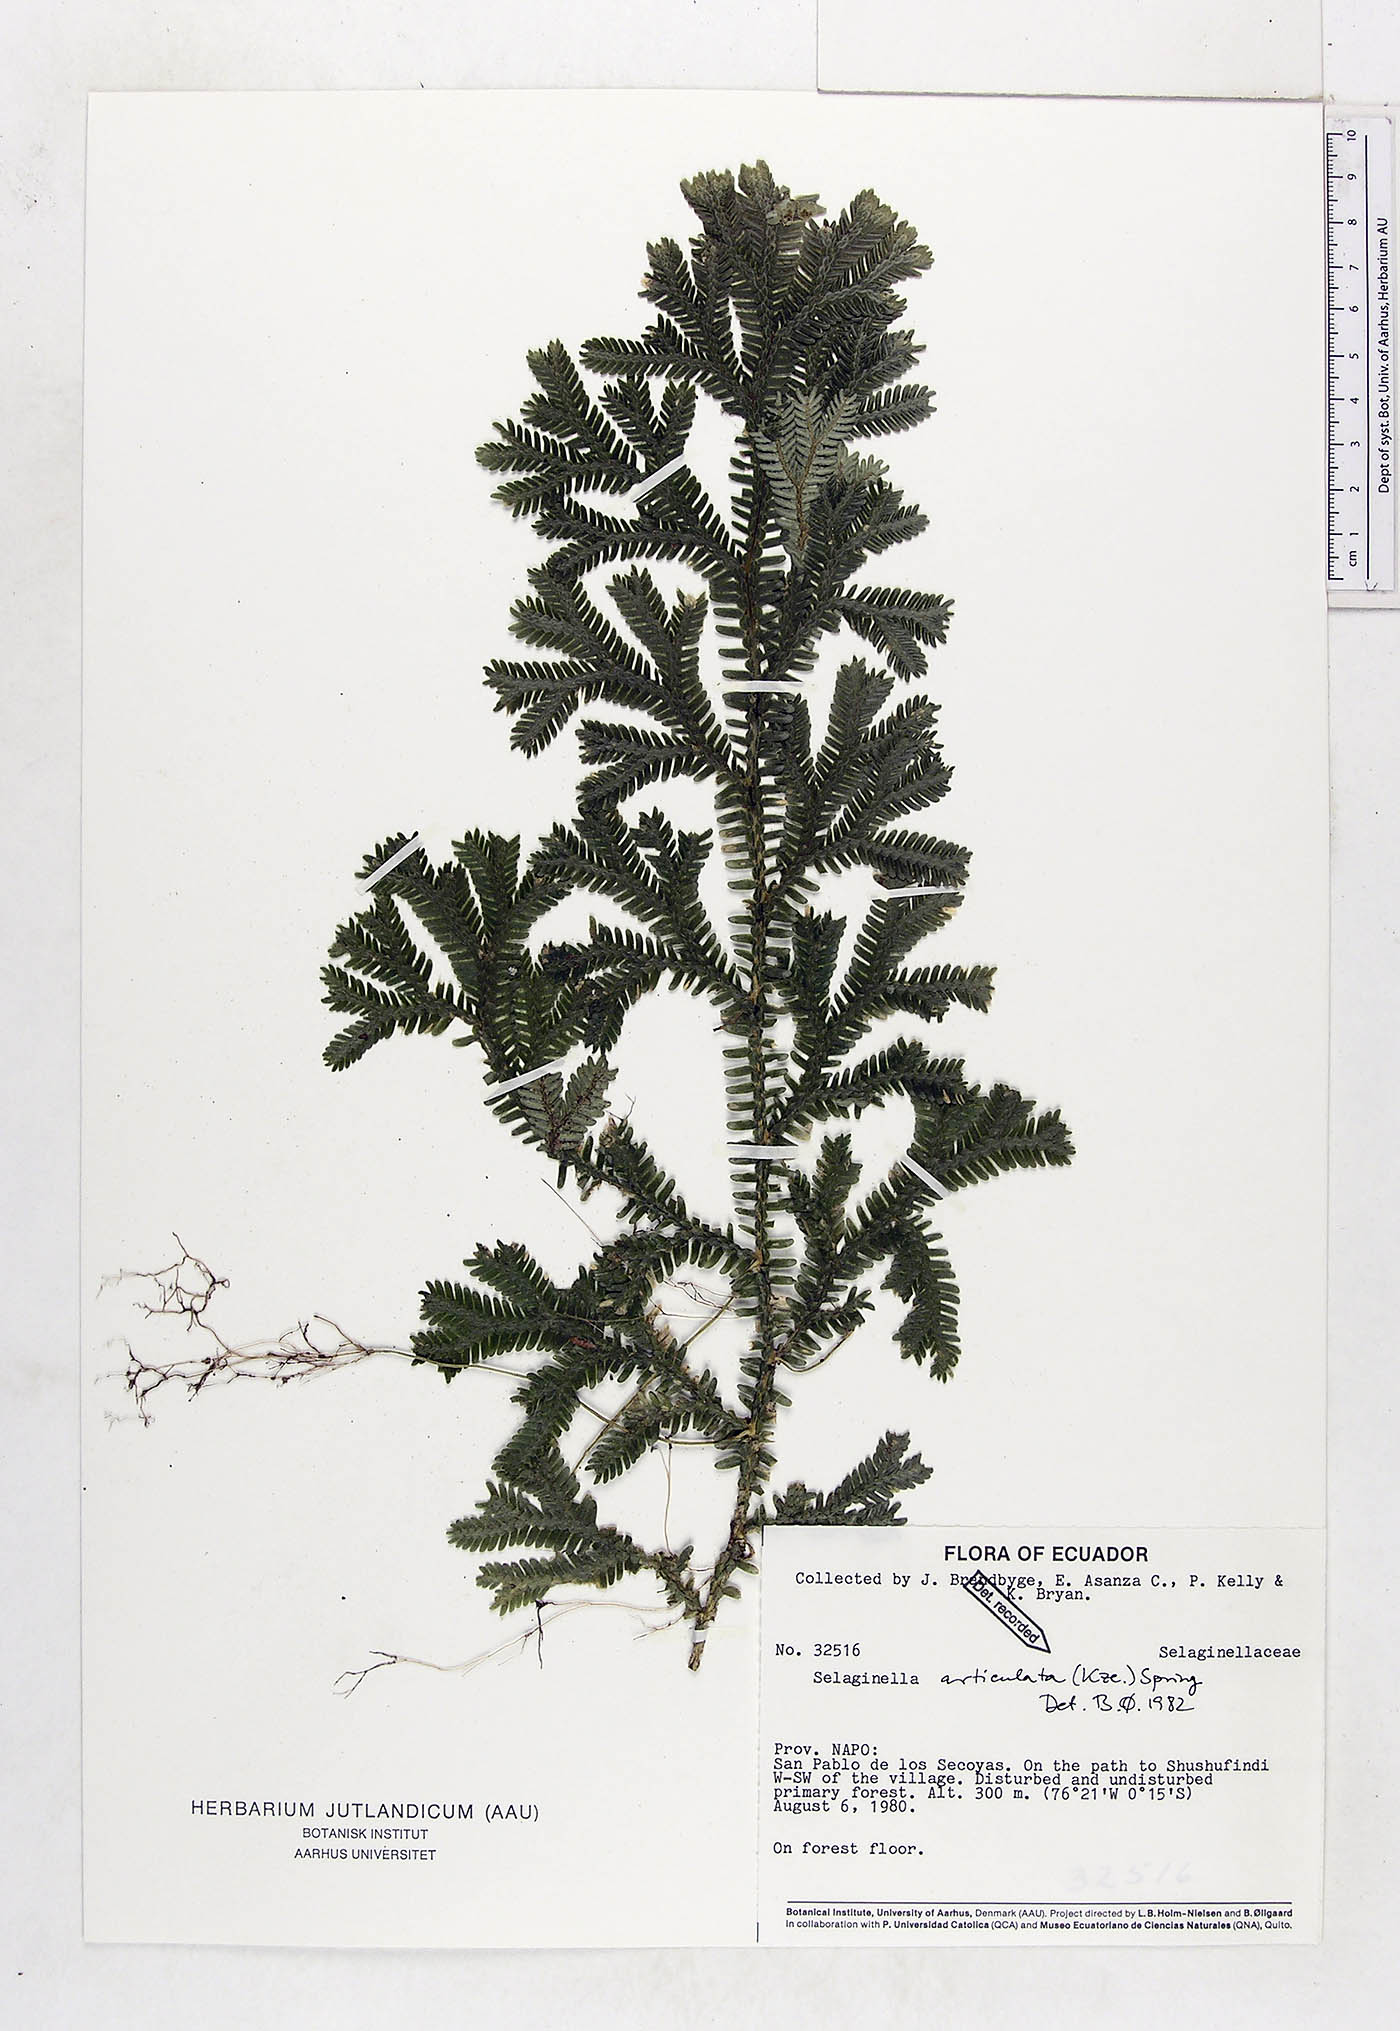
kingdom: Plantae
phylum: Tracheophyta
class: Lycopodiopsida
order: Selaginellales
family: Selaginellaceae
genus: Selaginella
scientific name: Selaginella articulata
